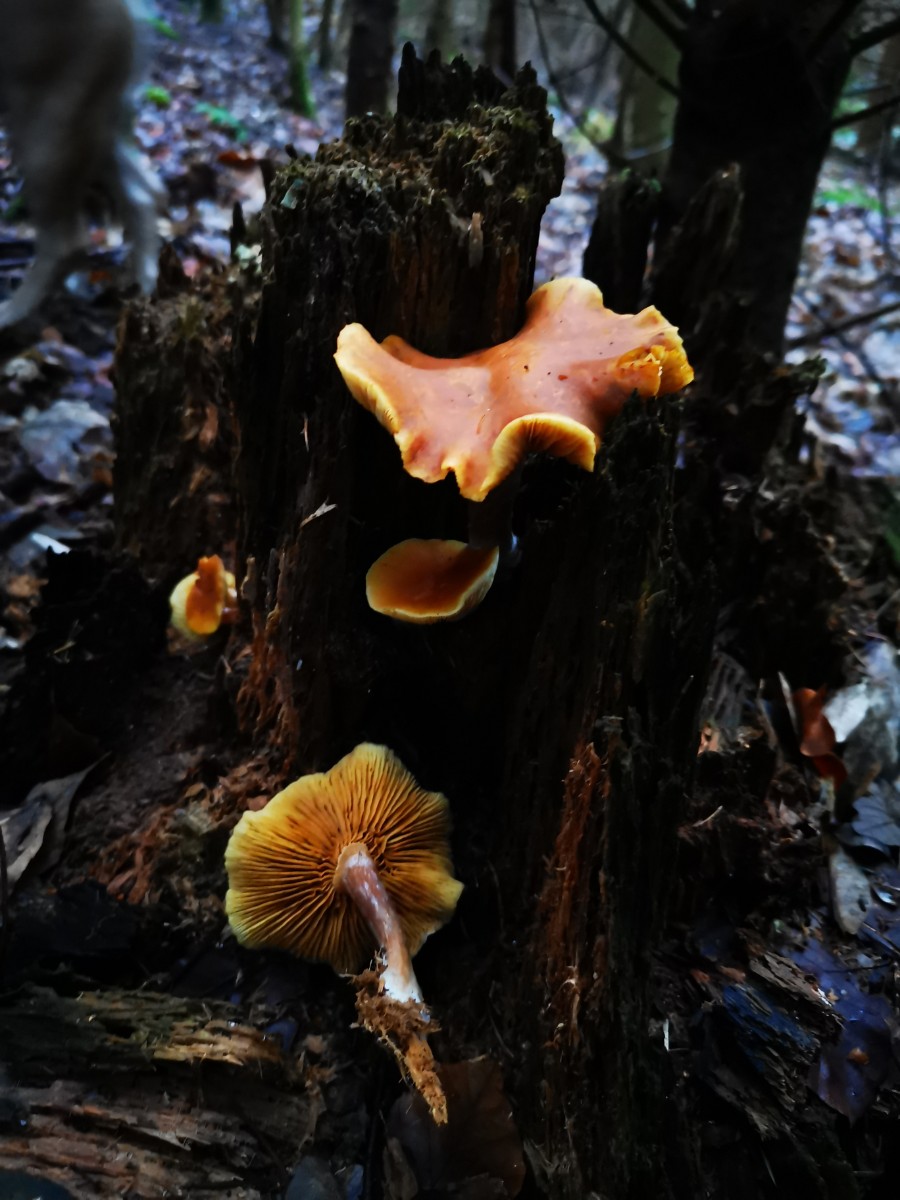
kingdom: Fungi
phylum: Basidiomycota
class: Agaricomycetes
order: Agaricales
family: Hymenogastraceae
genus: Gymnopilus
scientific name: Gymnopilus penetrans
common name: plettet flammehat
